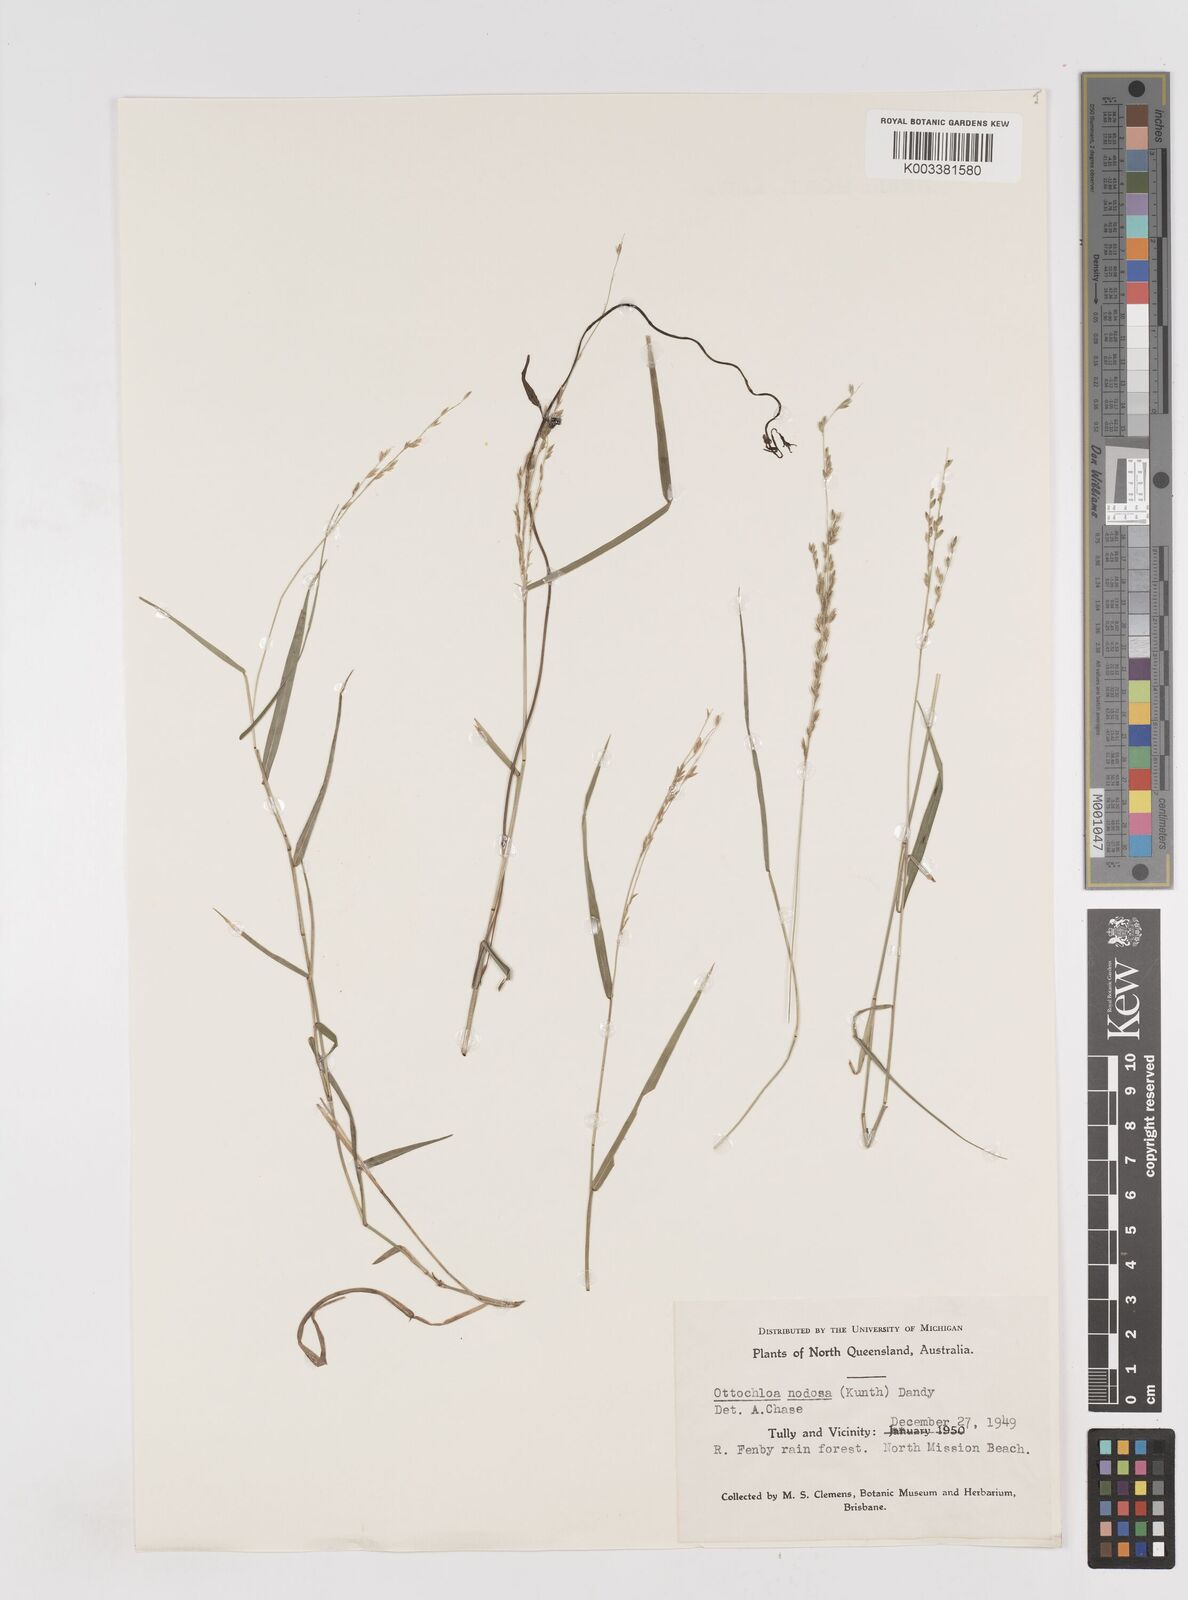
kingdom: Plantae
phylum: Tracheophyta
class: Liliopsida
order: Poales
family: Poaceae
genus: Ottochloa
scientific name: Ottochloa nodosa
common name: Slender-panic grass
